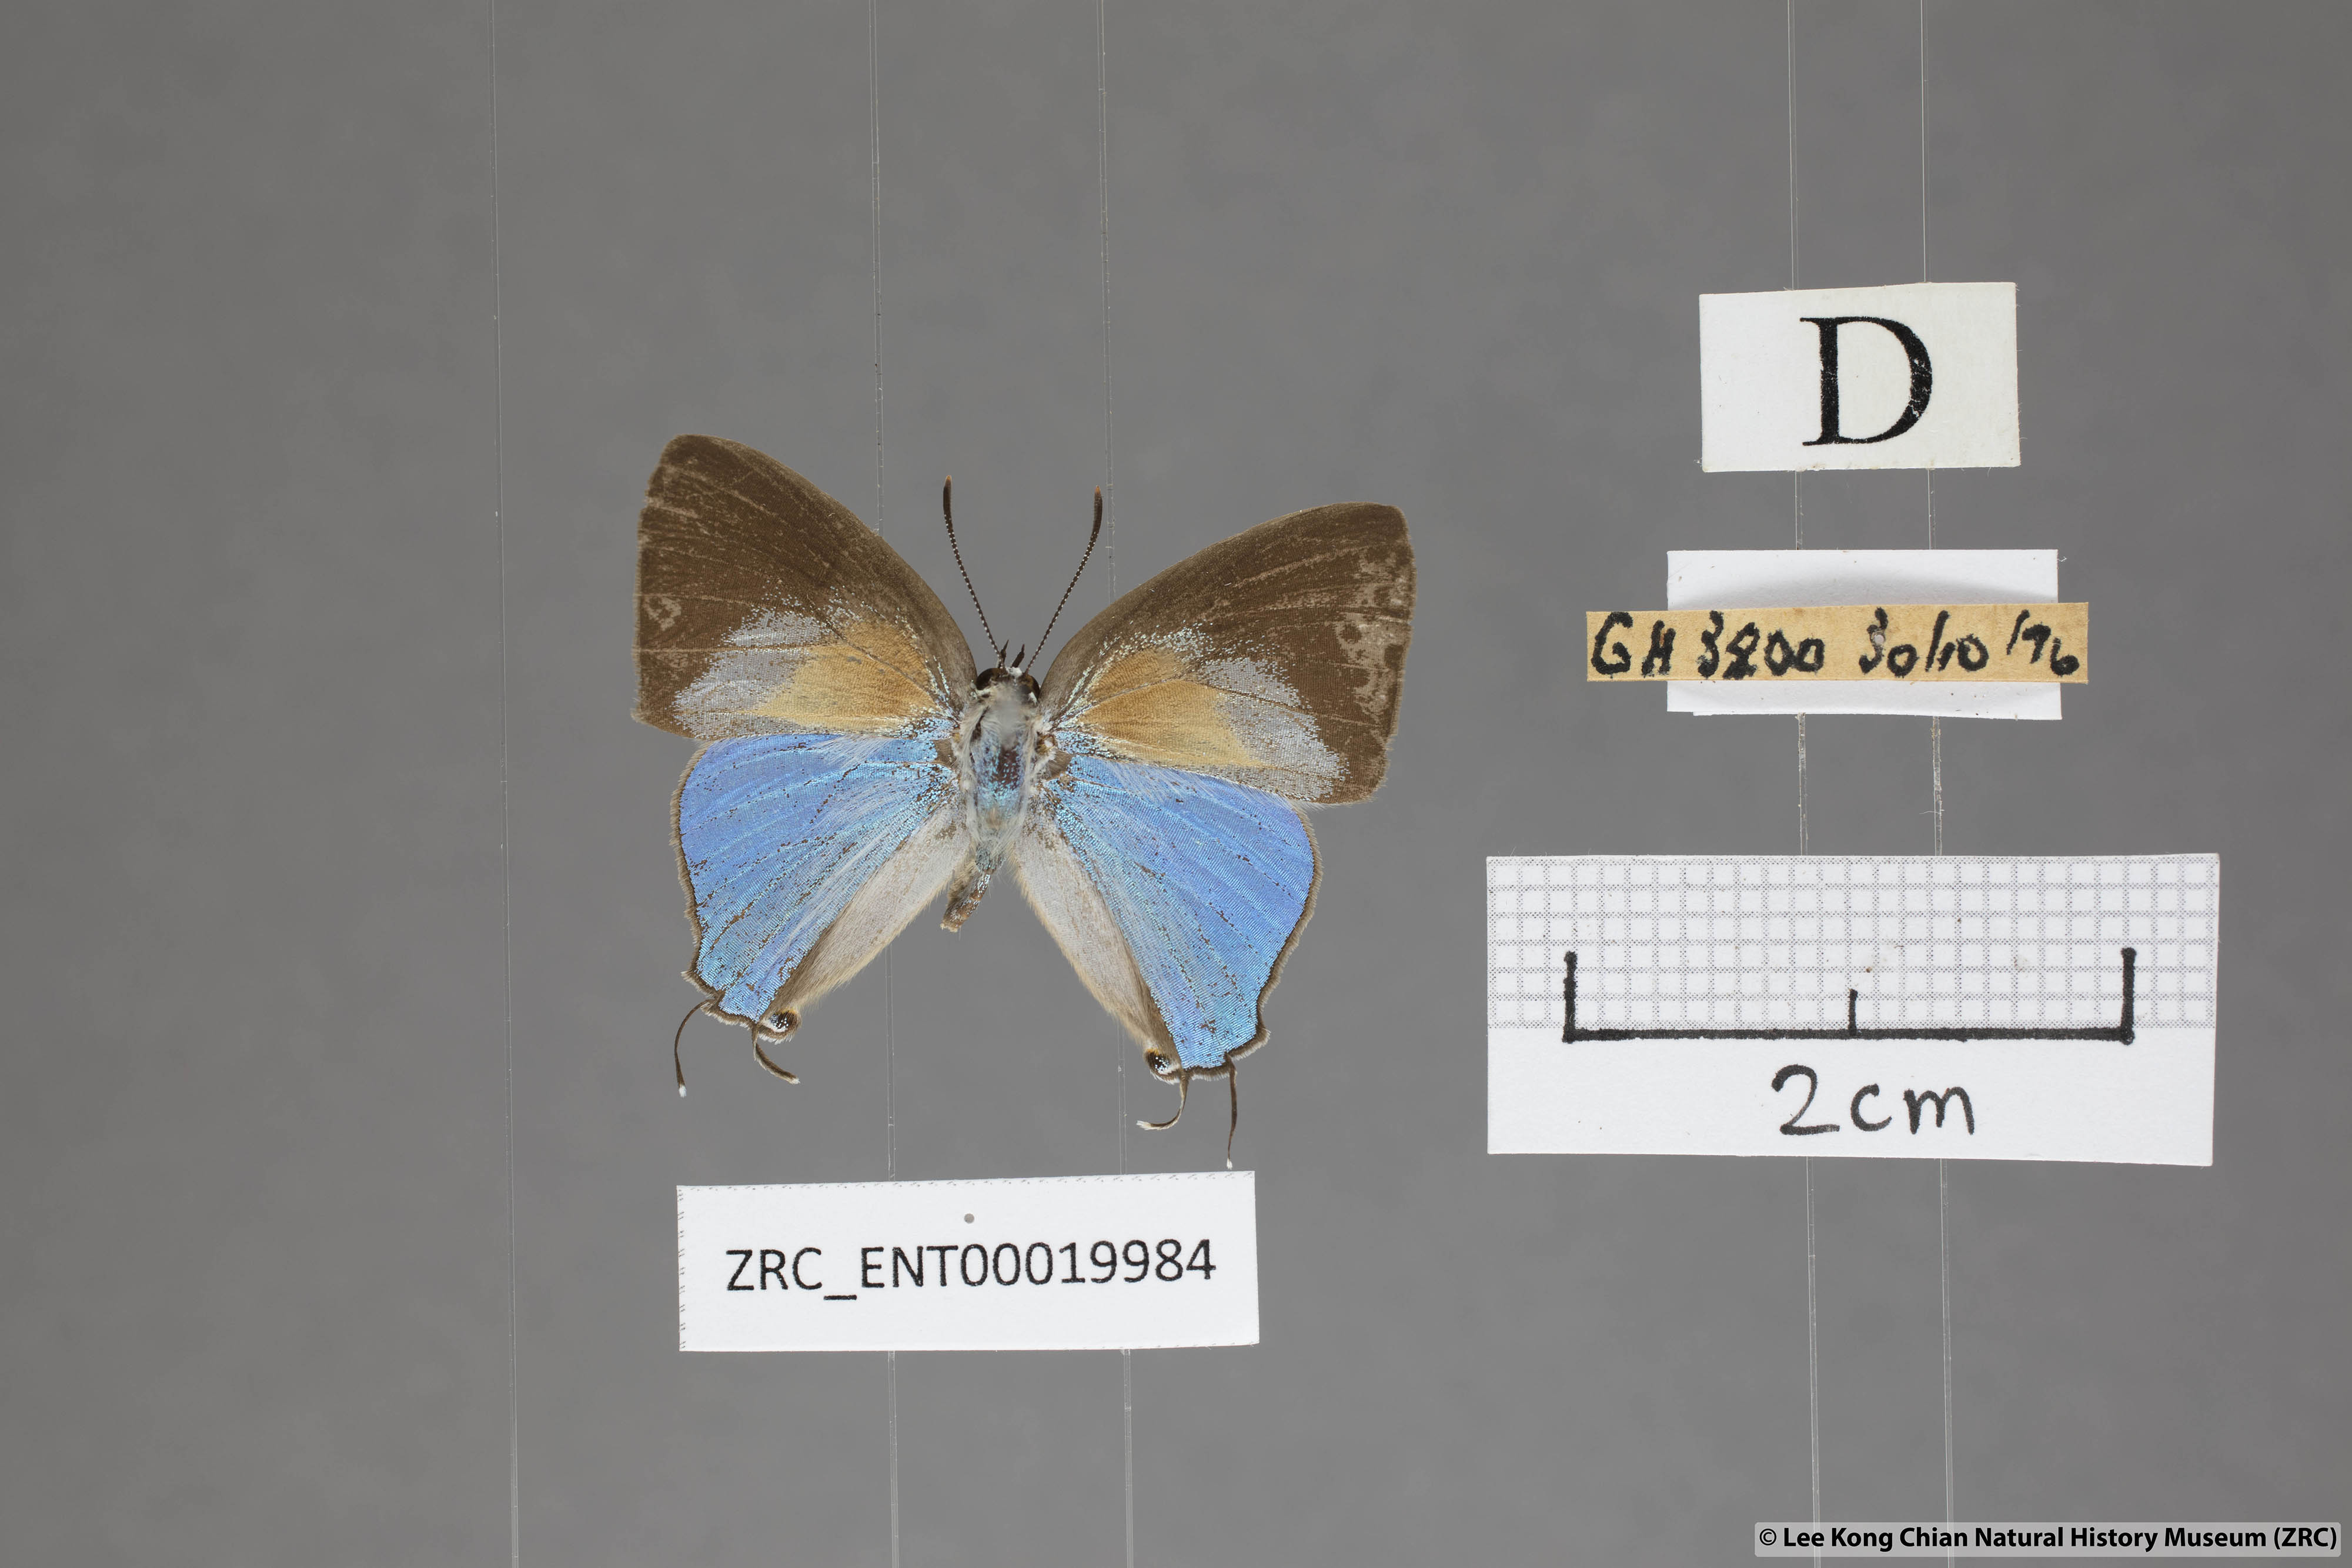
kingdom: Animalia
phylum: Arthropoda
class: Insecta
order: Lepidoptera
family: Lycaenidae
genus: Bullis
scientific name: Bullis elioti
